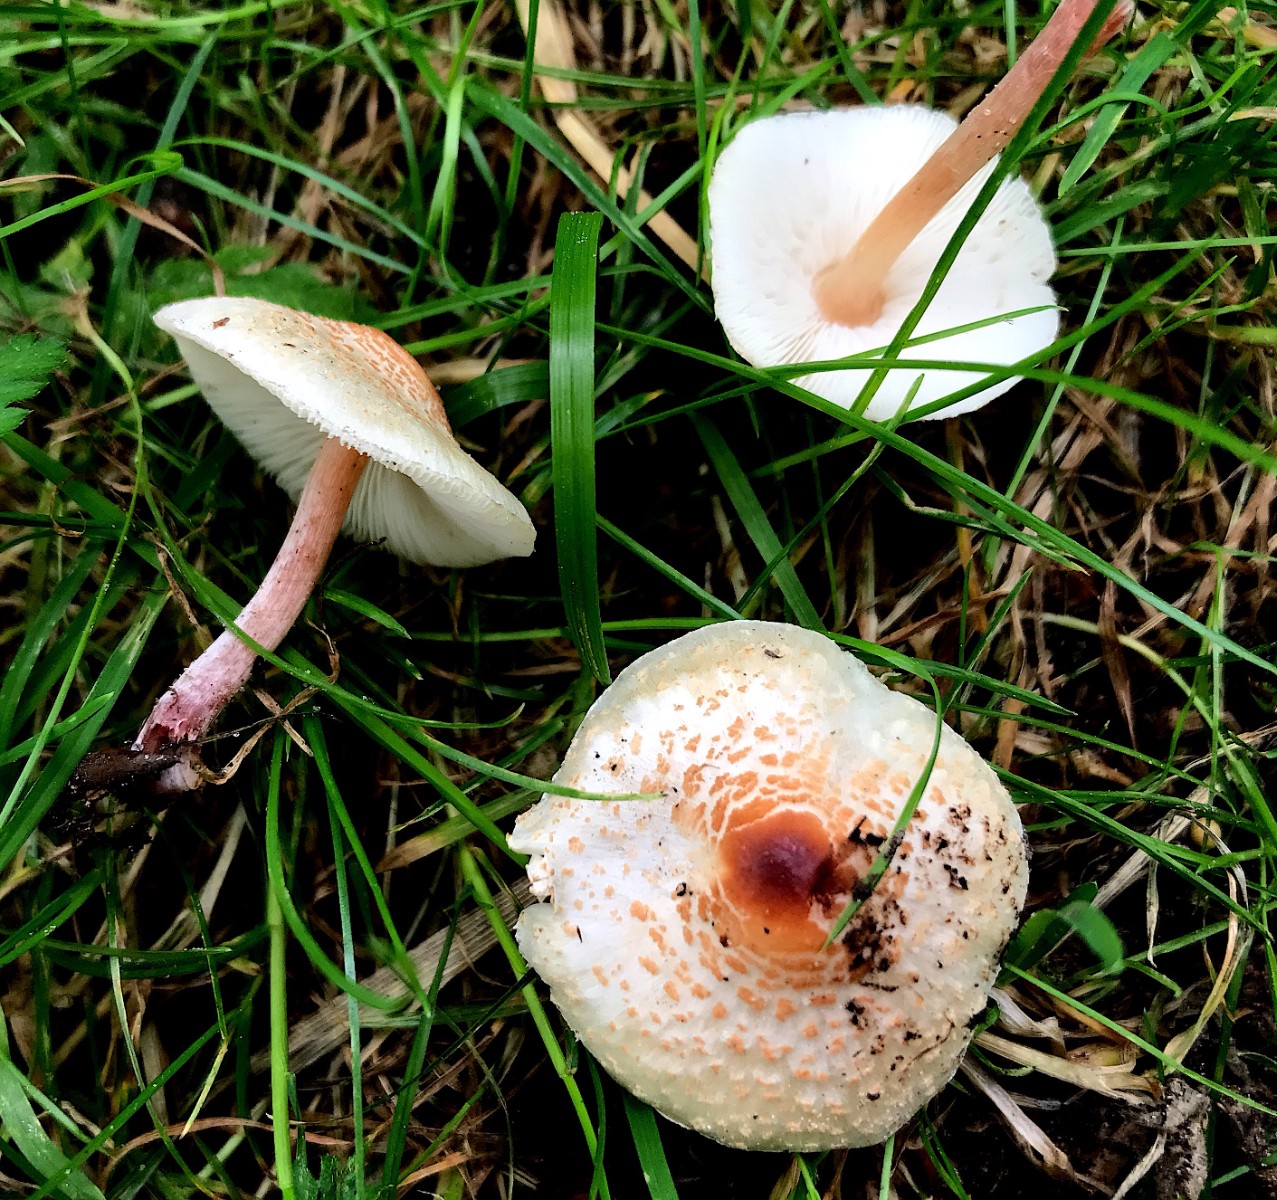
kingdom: Fungi
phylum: Basidiomycota
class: Agaricomycetes
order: Agaricales
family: Agaricaceae
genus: Lepiota
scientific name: Lepiota cristata
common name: stinkende parasolhat
